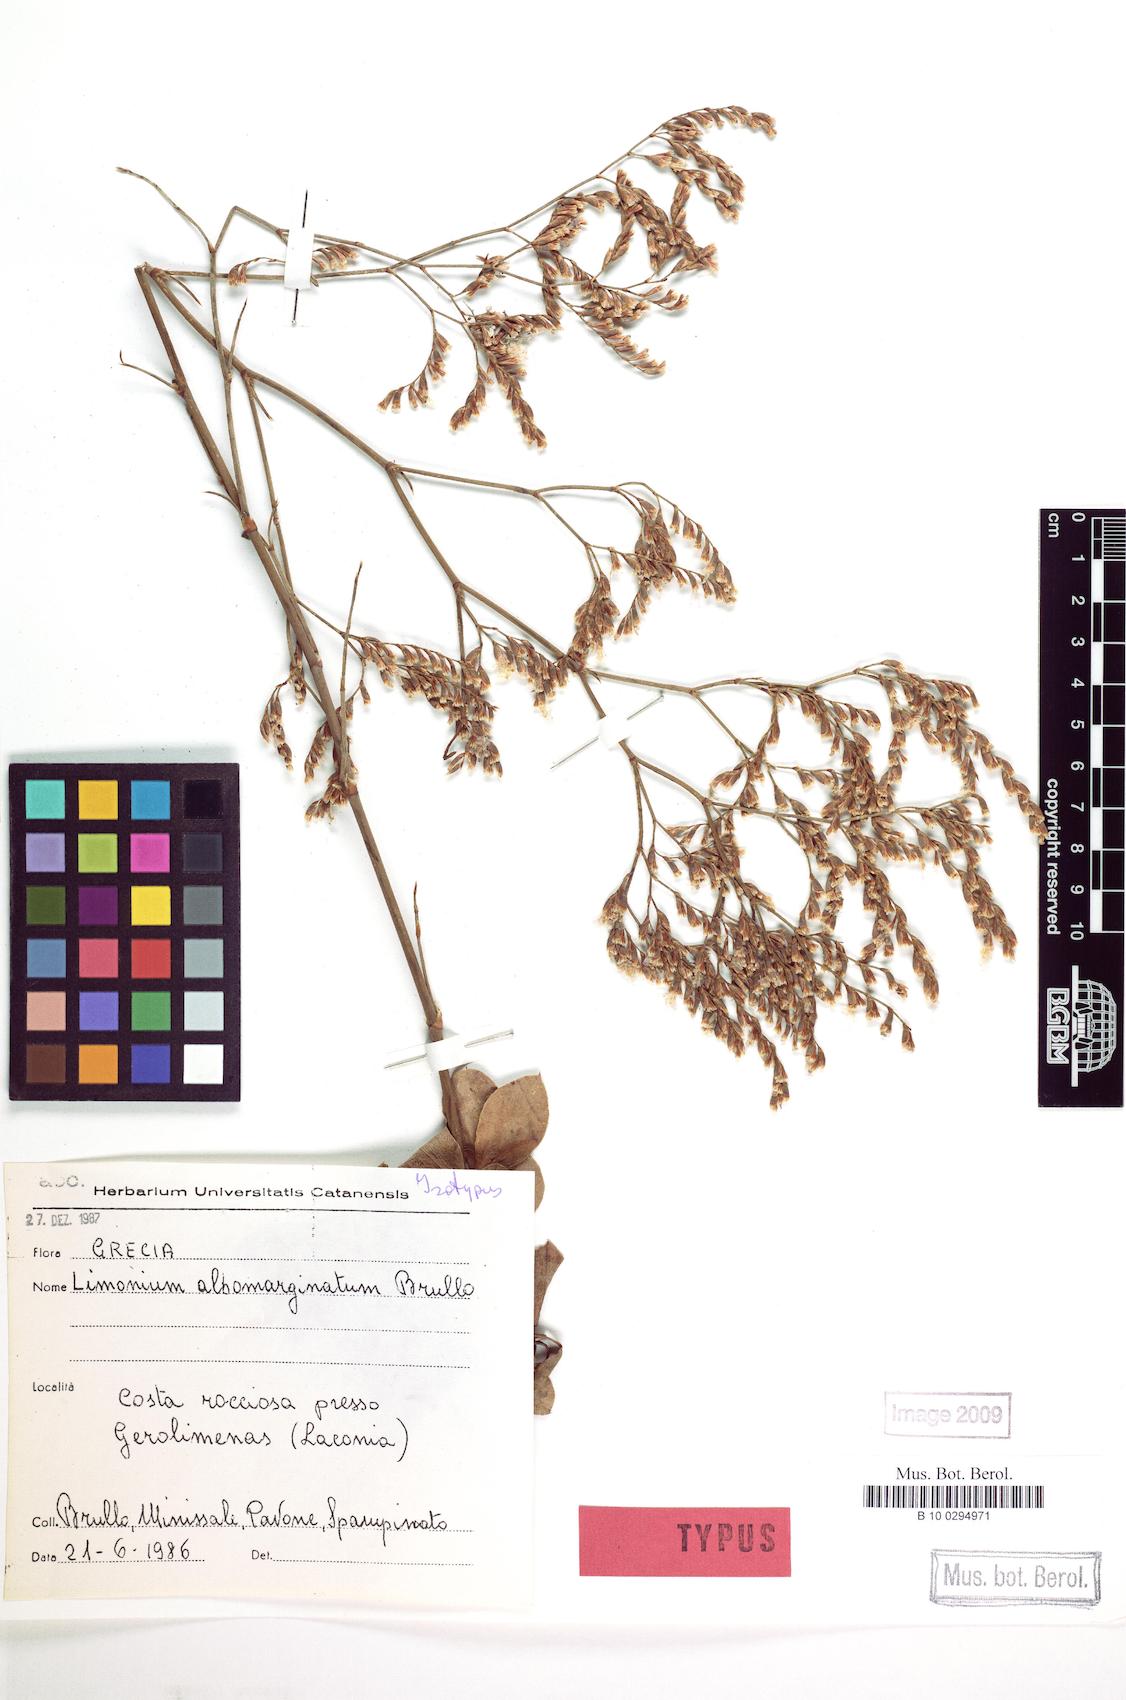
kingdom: Plantae
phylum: Tracheophyta
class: Magnoliopsida
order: Caryophyllales
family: Plumbaginaceae
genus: Limonium
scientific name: Limonium albomarginatum
